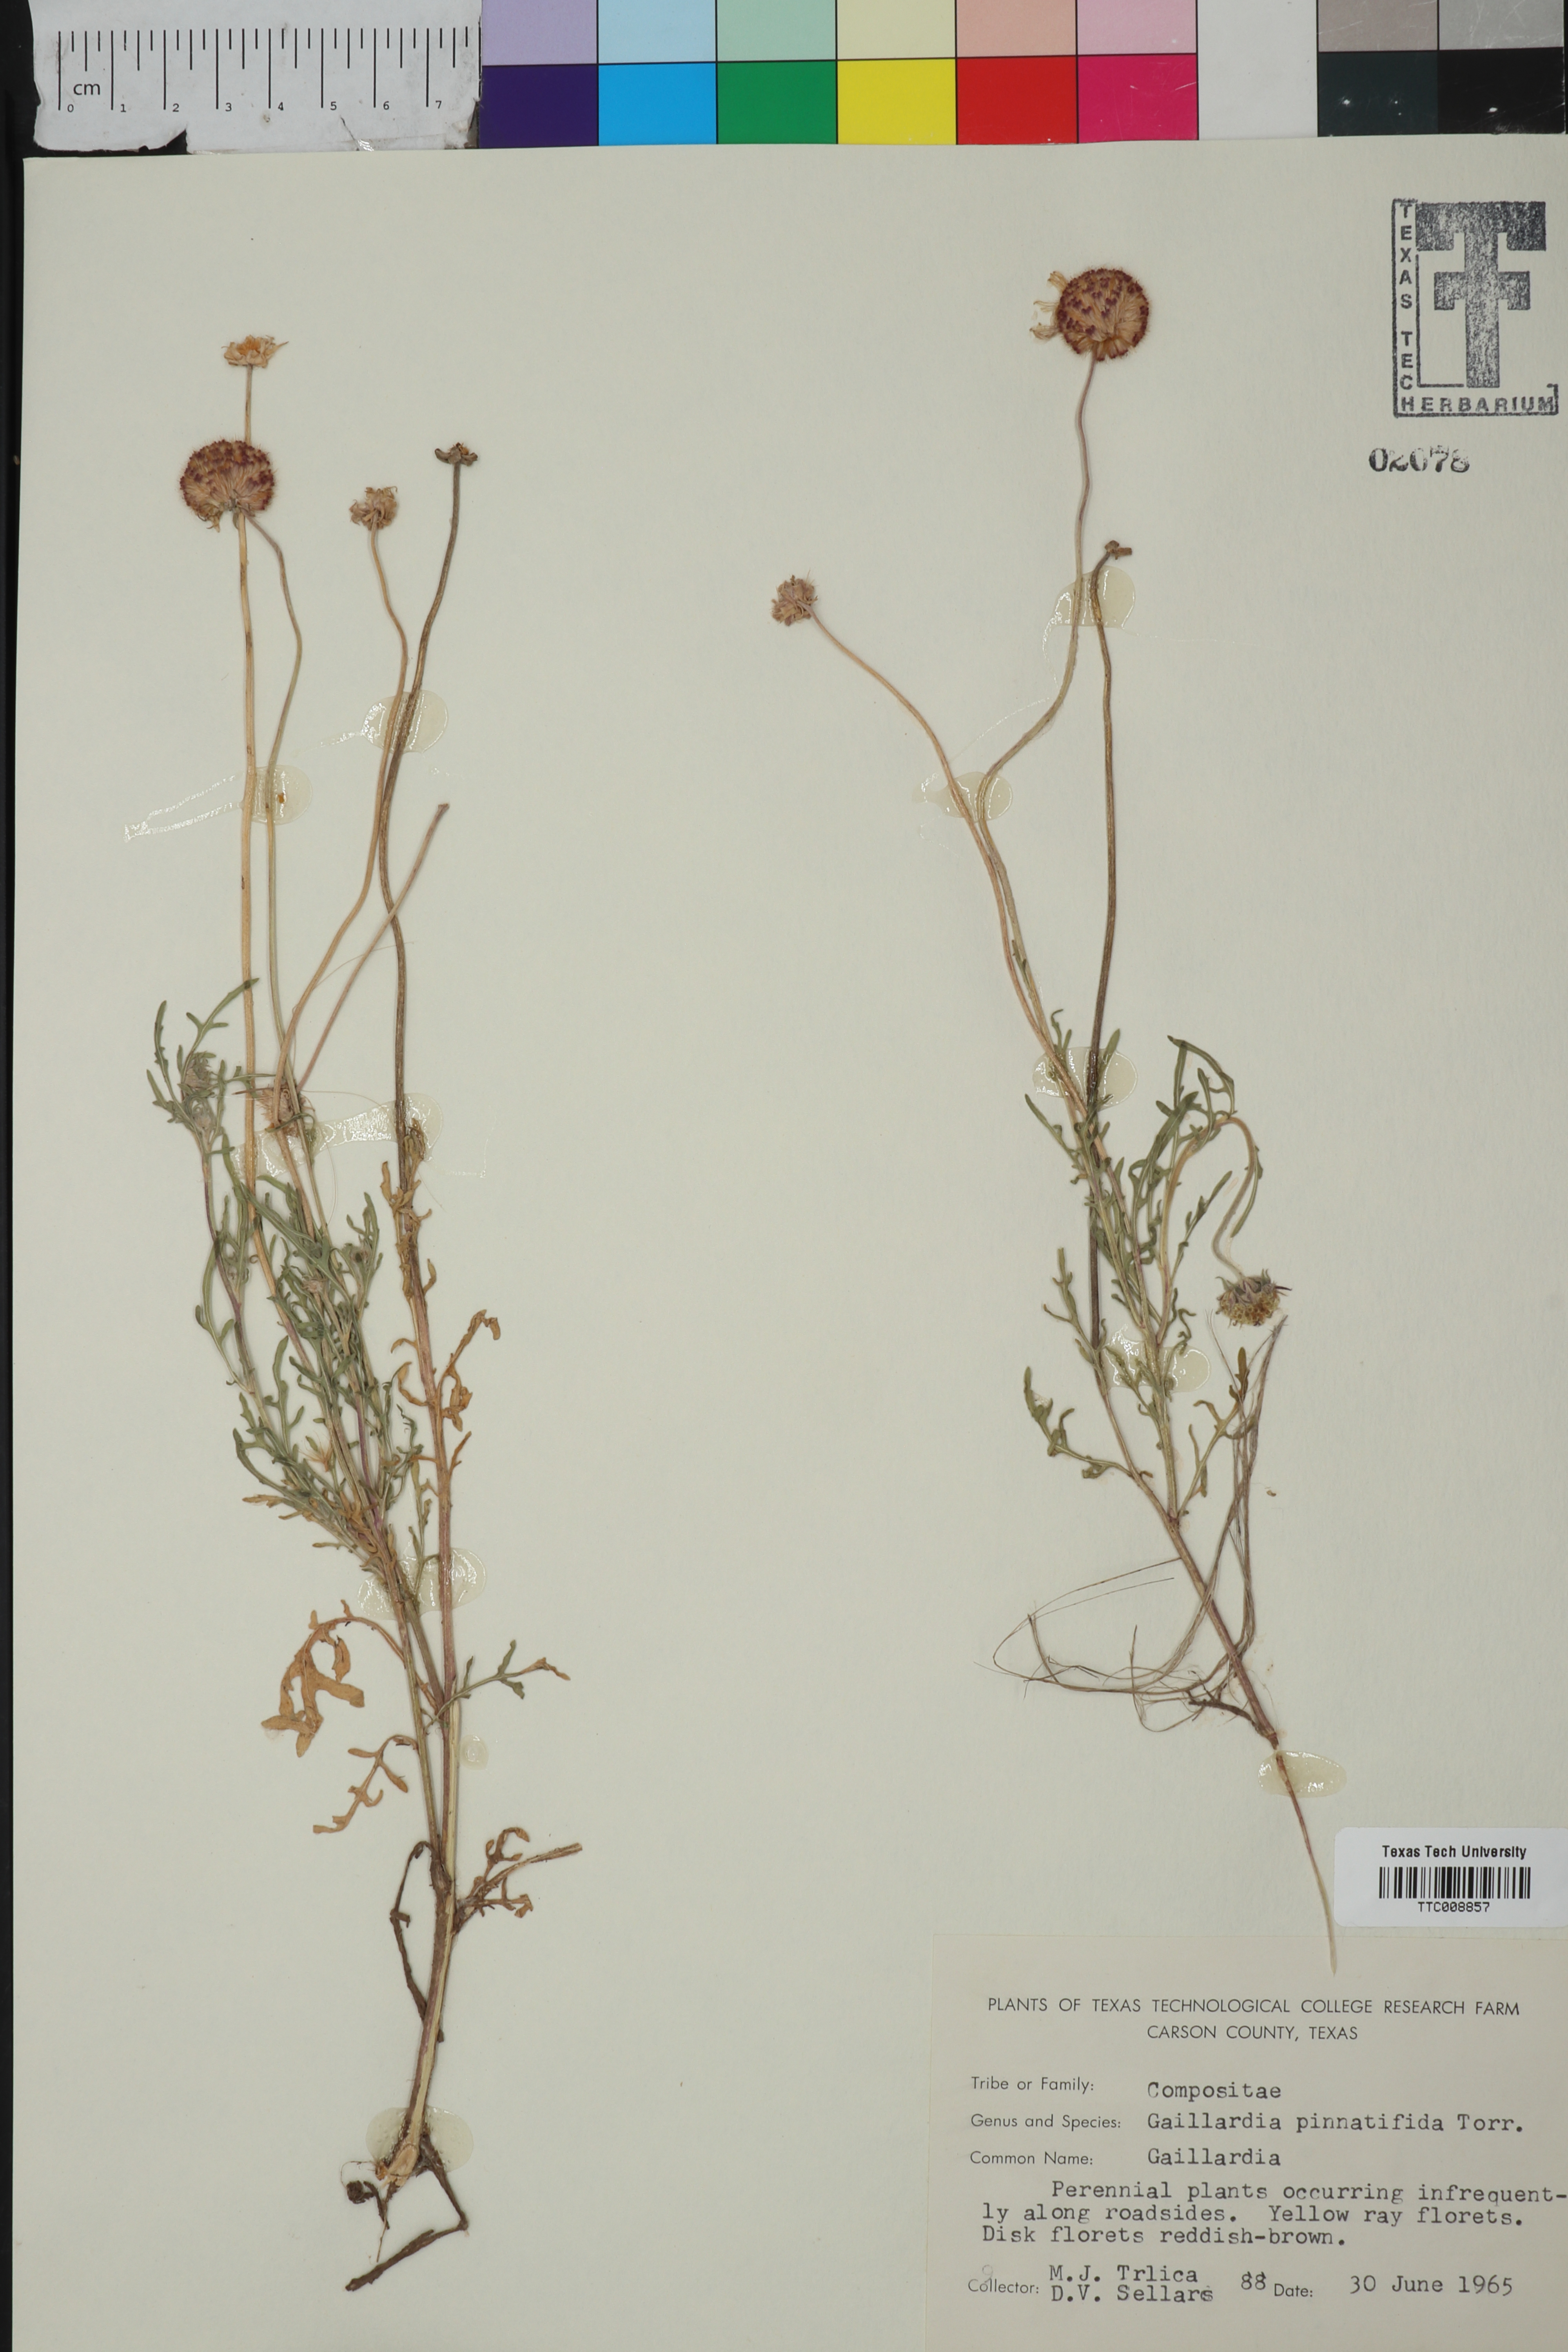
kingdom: Plantae
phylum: Tracheophyta
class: Magnoliopsida
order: Asterales
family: Asteraceae
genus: Gaillardia
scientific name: Gaillardia pinnatifida
